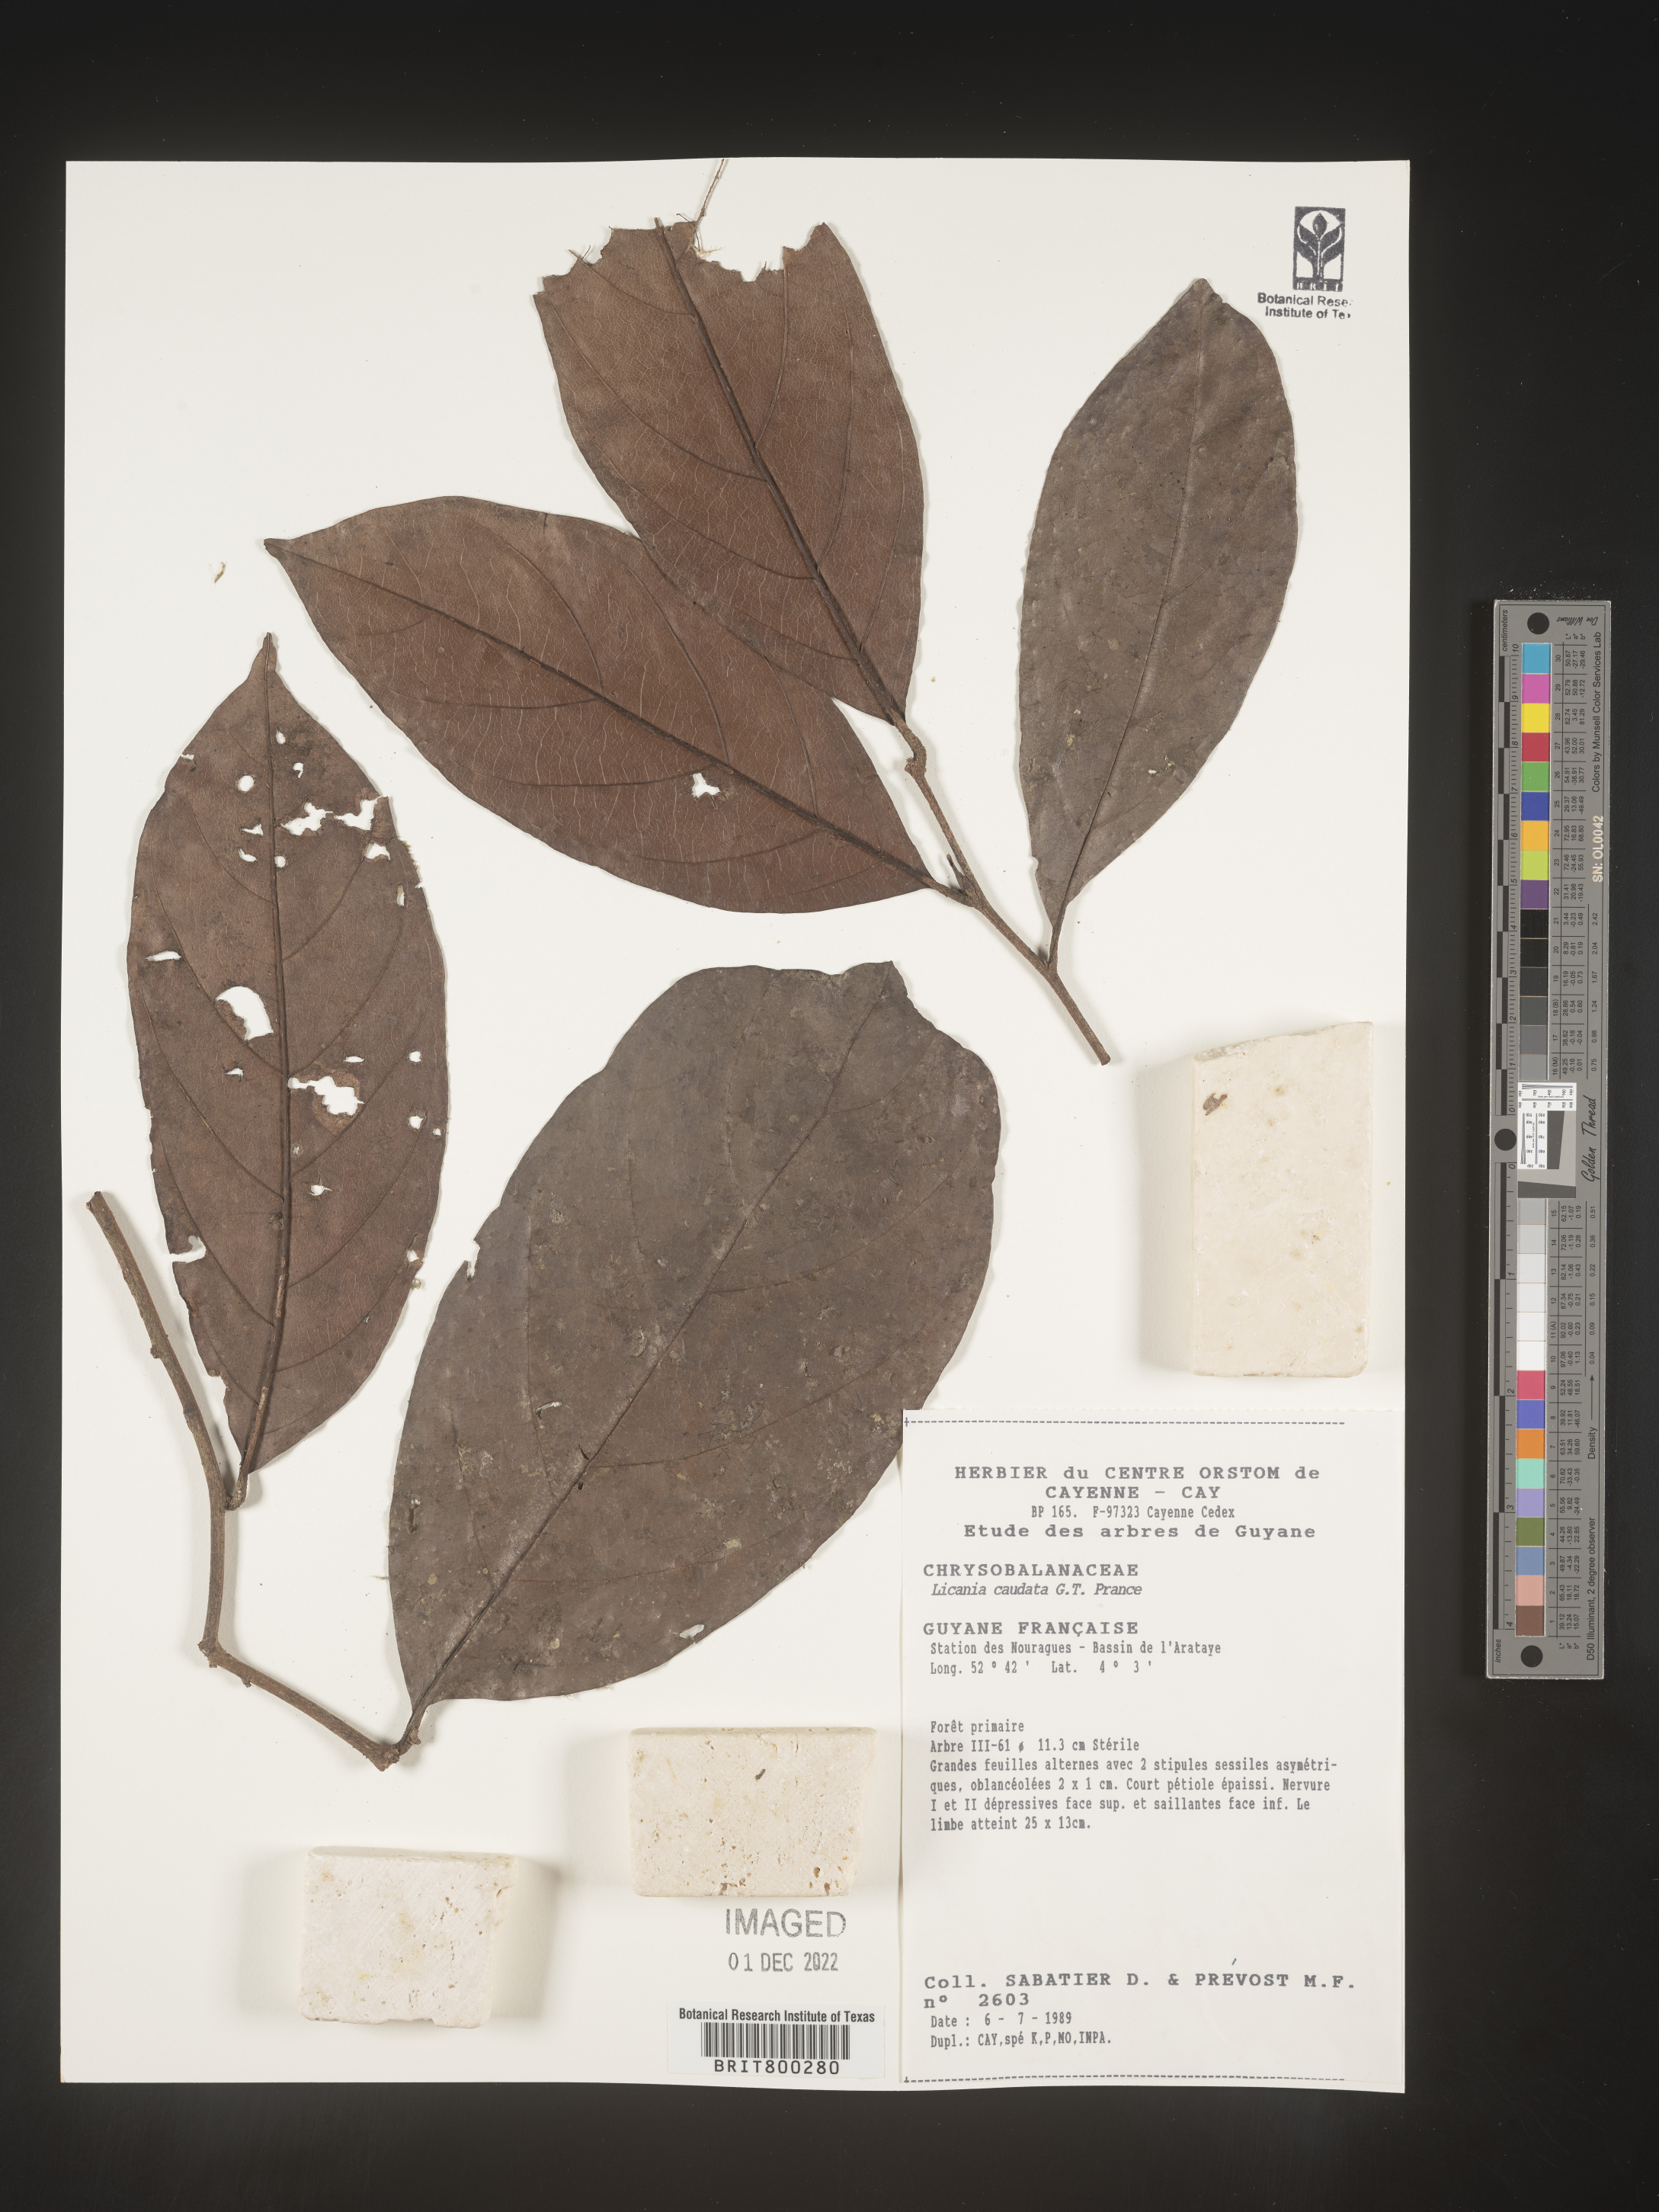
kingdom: Plantae
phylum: Tracheophyta
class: Magnoliopsida
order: Malpighiales
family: Chrysobalanaceae
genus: Geobalanus
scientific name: Geobalanus oblongifolius
